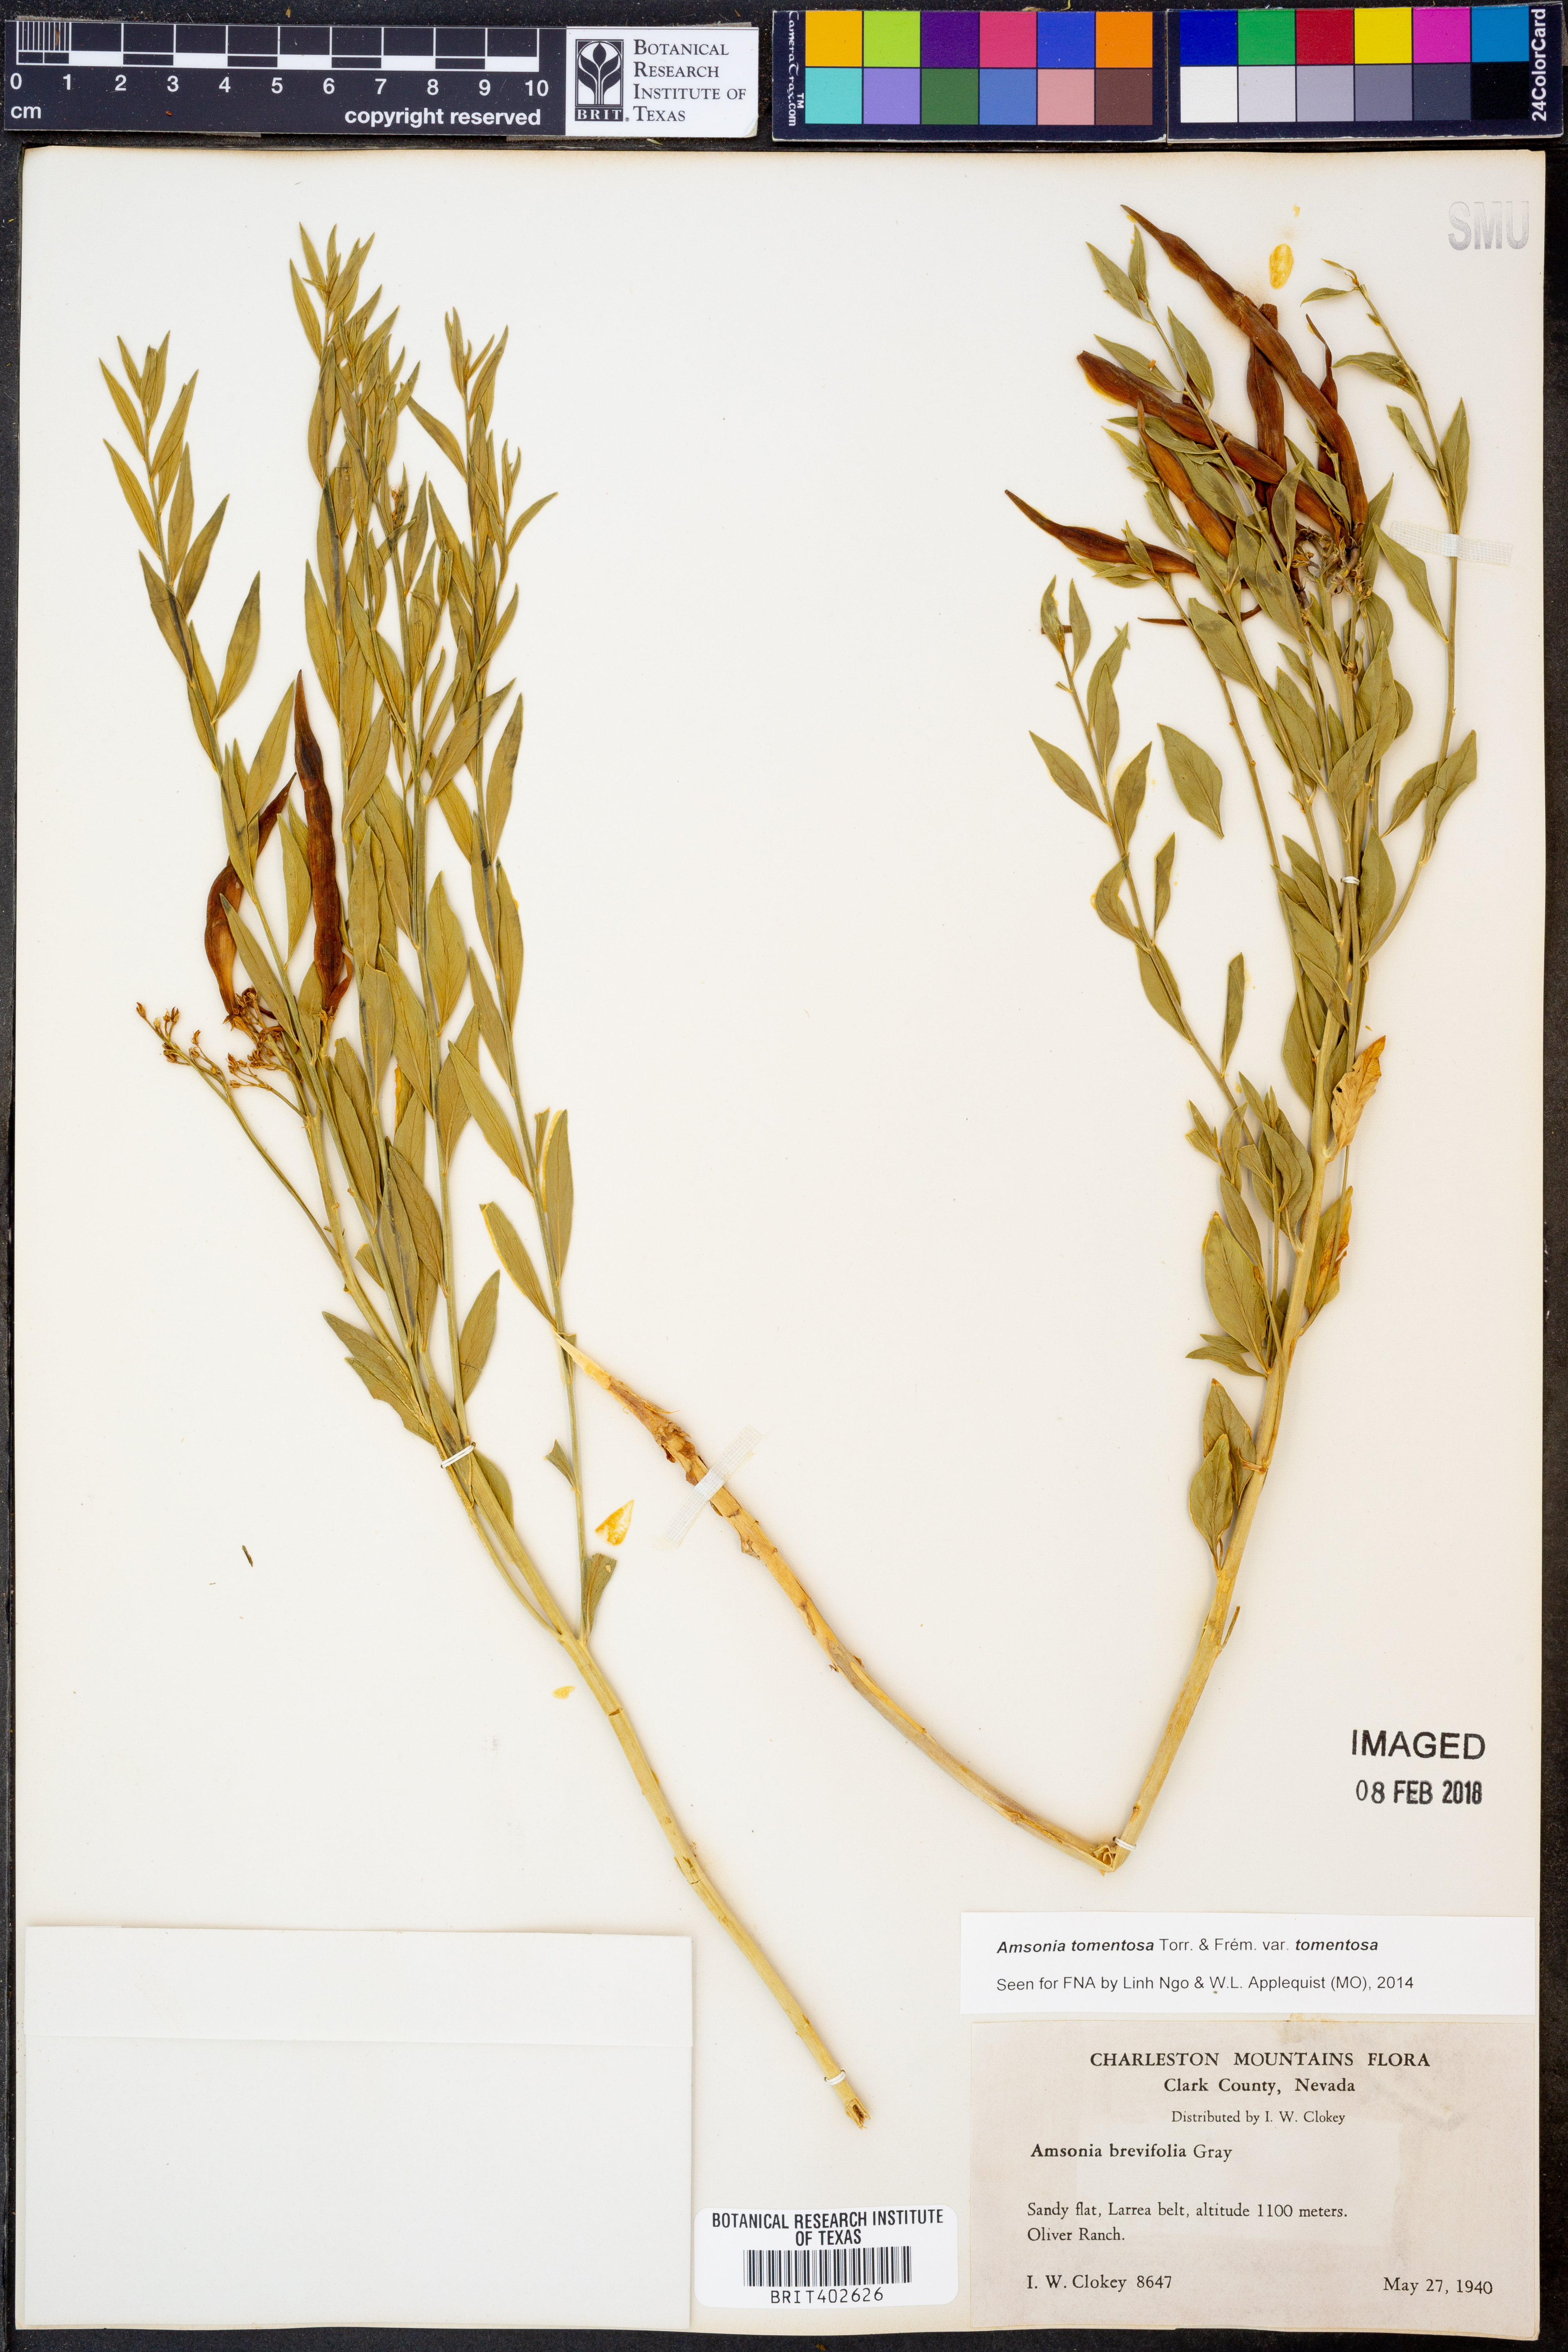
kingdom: Plantae
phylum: Tracheophyta
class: Magnoliopsida
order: Gentianales
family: Apocynaceae
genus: Amsonia
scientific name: Amsonia tomentosa
